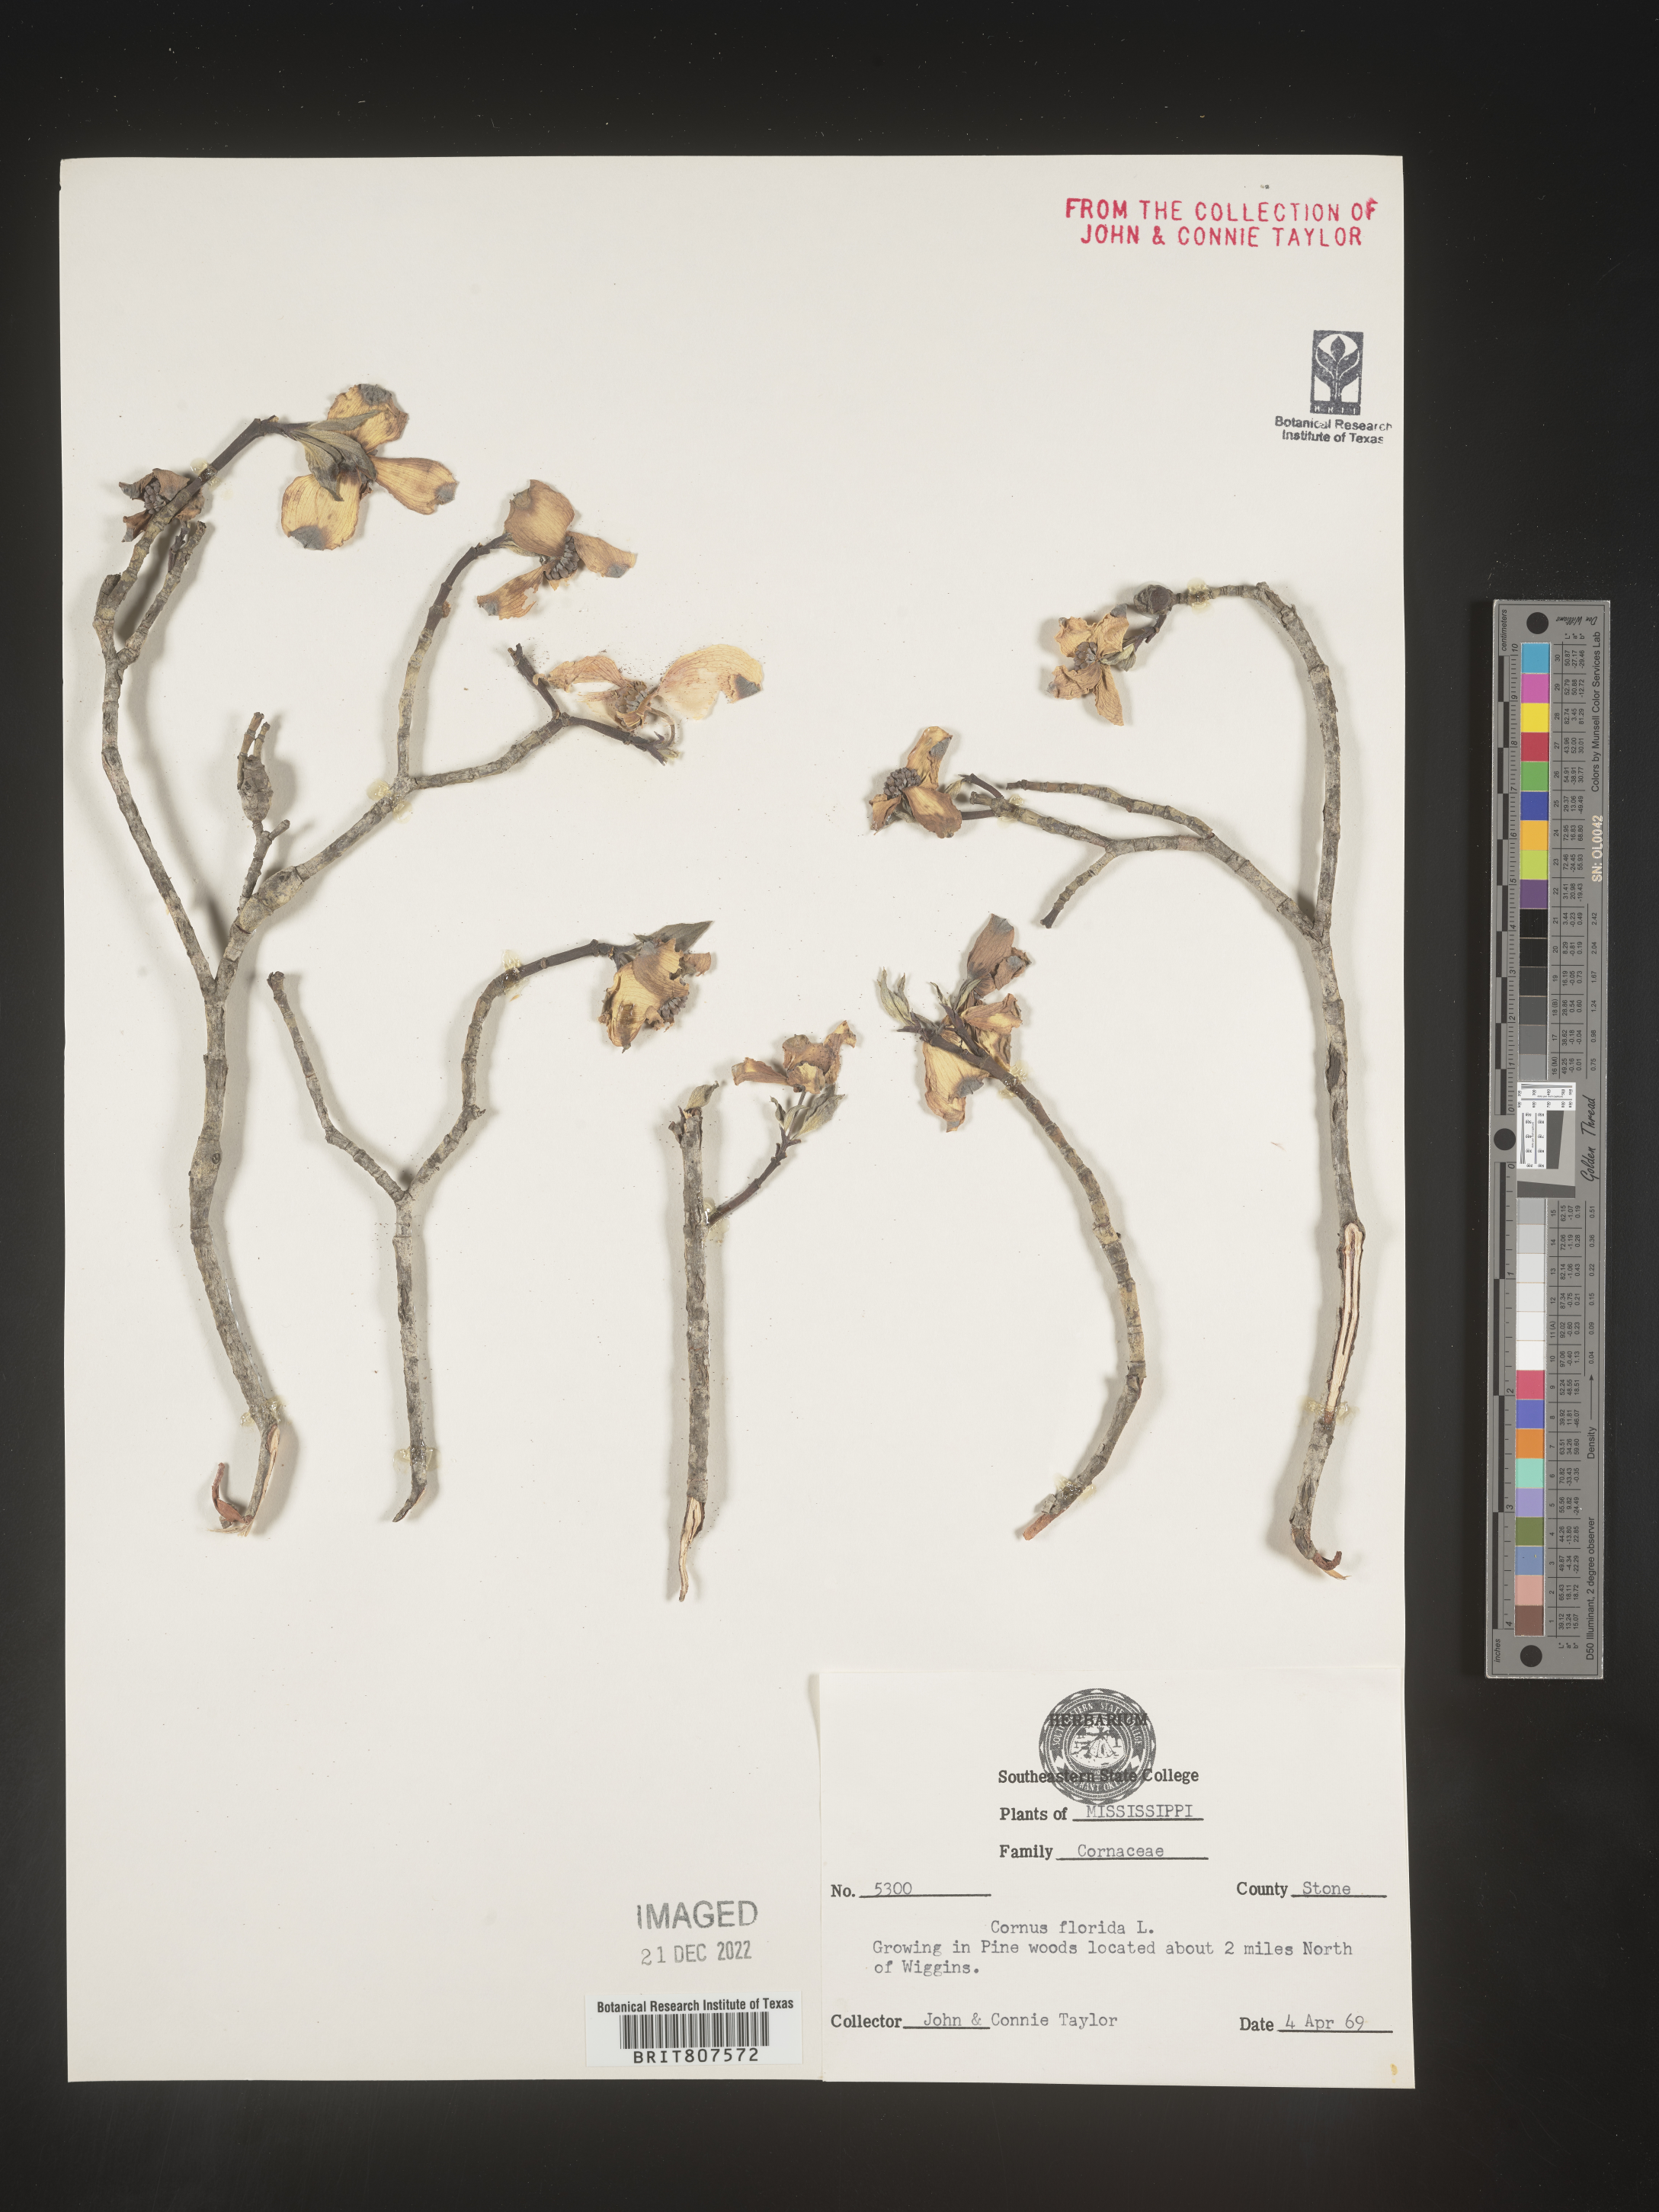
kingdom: Plantae
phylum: Tracheophyta
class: Magnoliopsida
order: Cornales
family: Cornaceae
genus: Cornus
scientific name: Cornus florida
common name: Flowering dogwood
